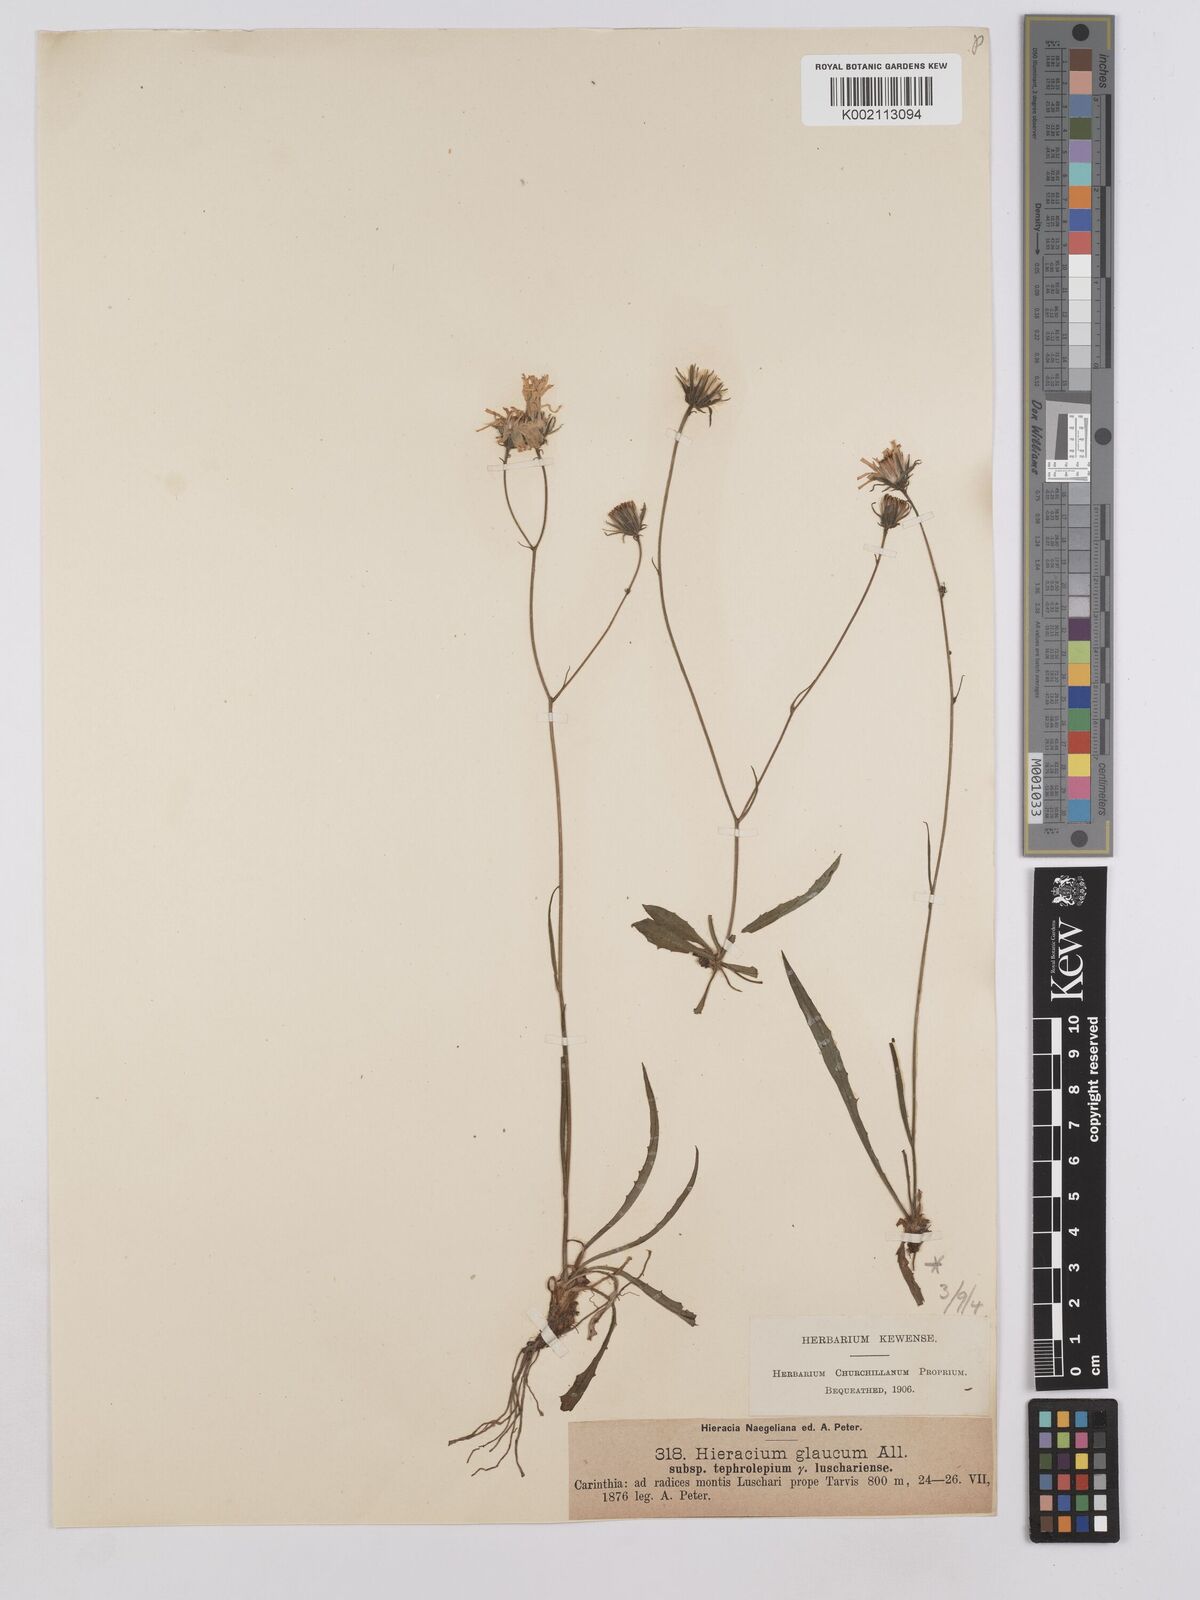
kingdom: Plantae
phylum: Tracheophyta
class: Magnoliopsida
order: Asterales
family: Asteraceae
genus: Hieracium
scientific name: Hieracium glaucum
